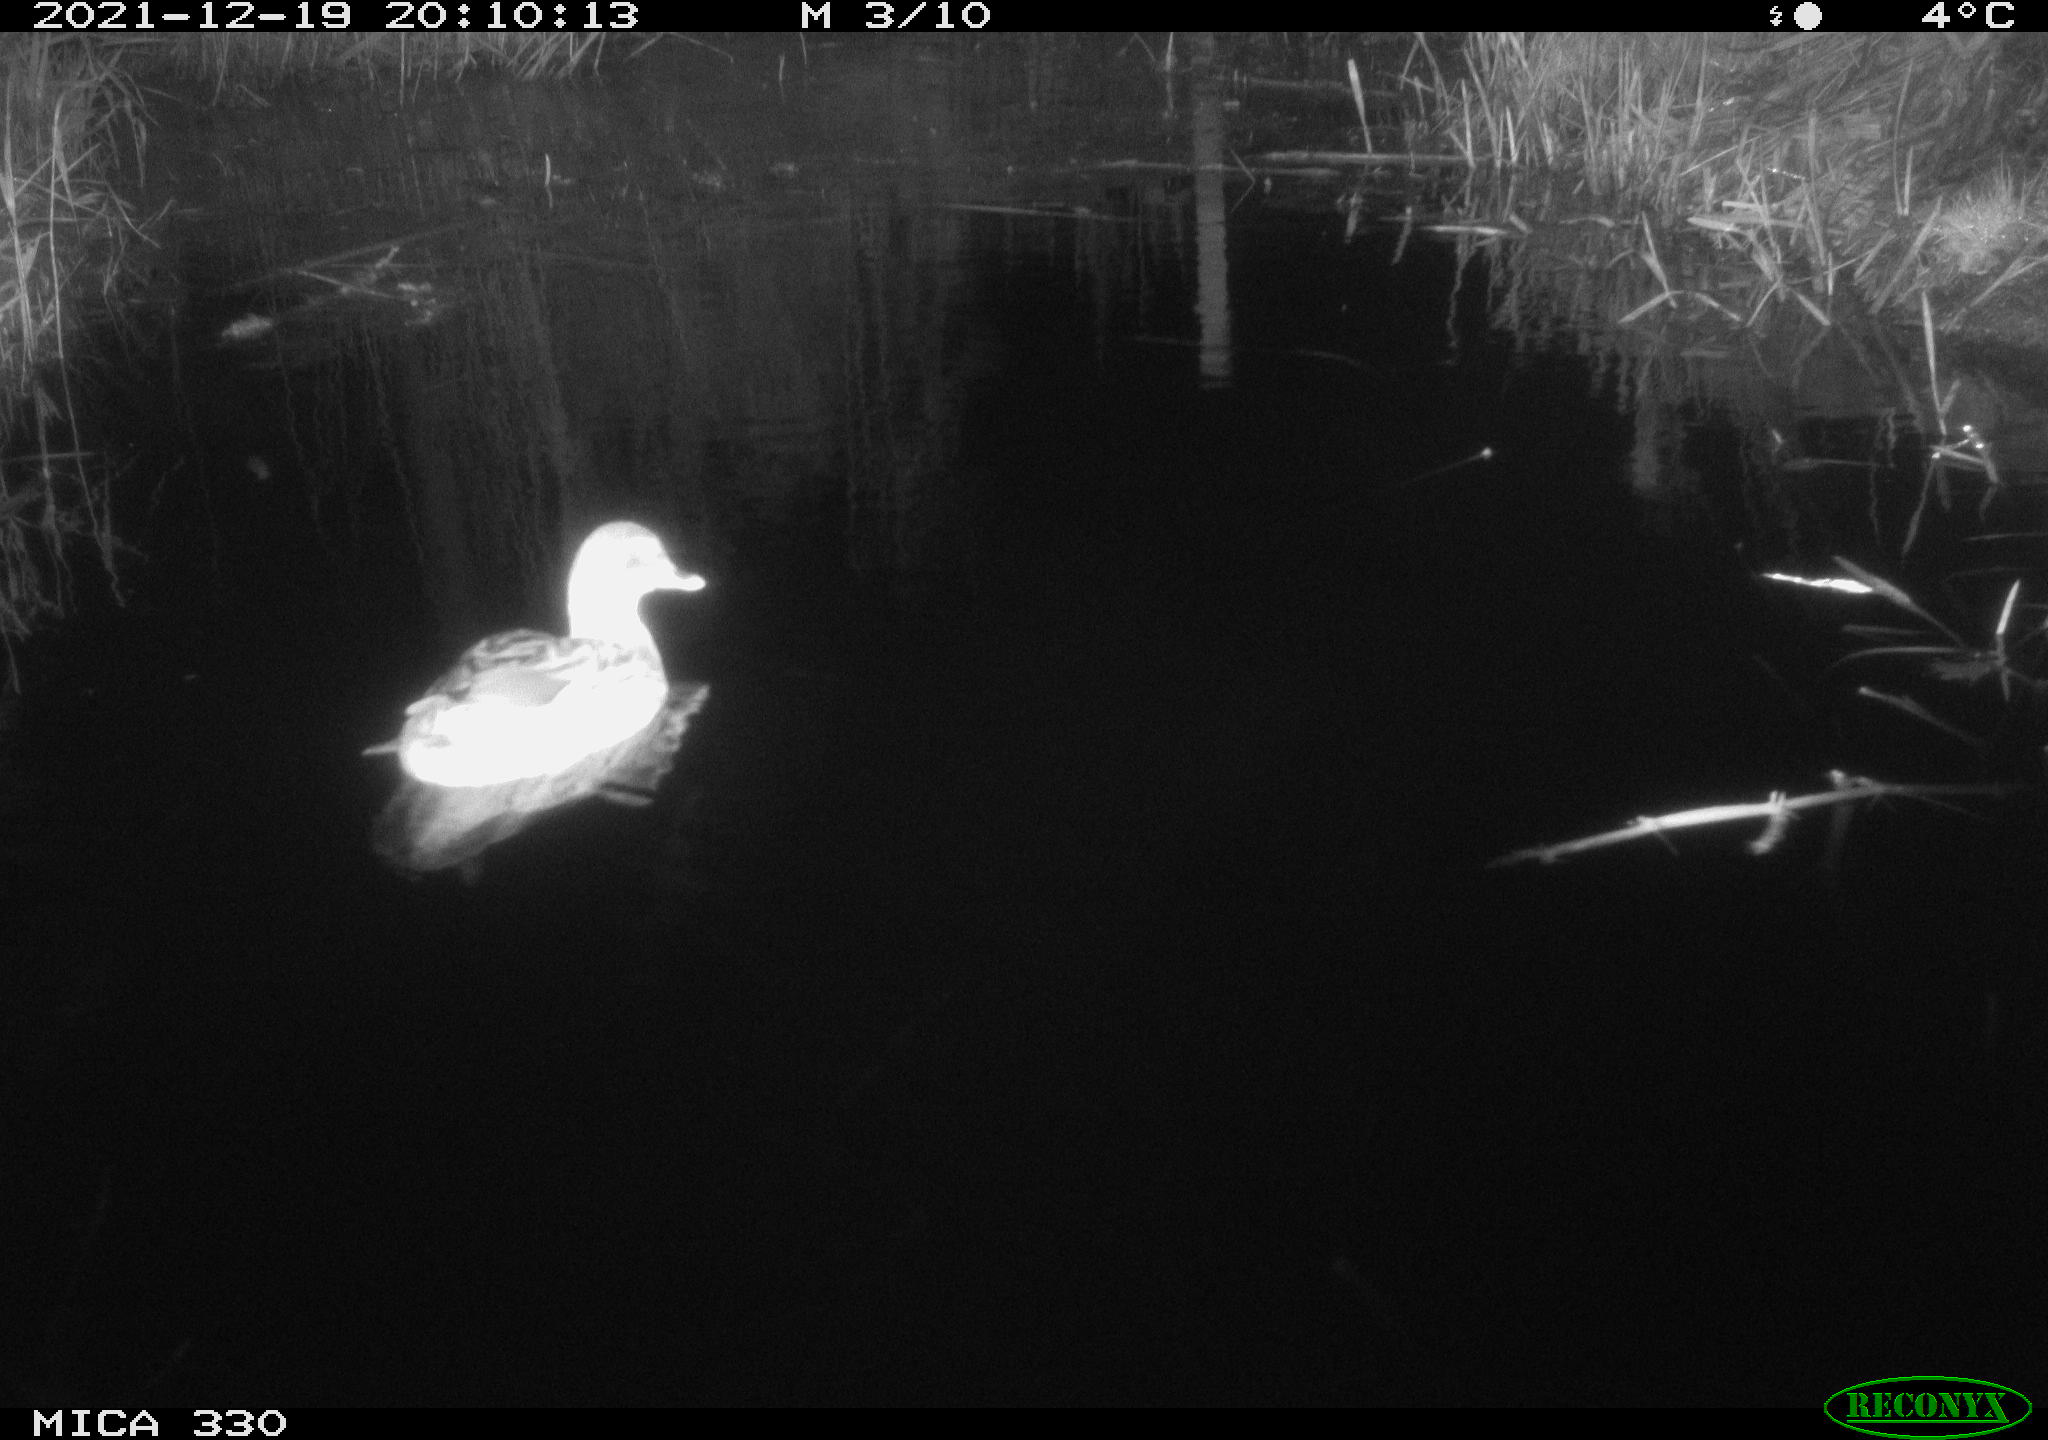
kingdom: Animalia
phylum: Chordata
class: Aves
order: Anseriformes
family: Anatidae
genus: Anas
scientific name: Anas platyrhynchos
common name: Mallard
